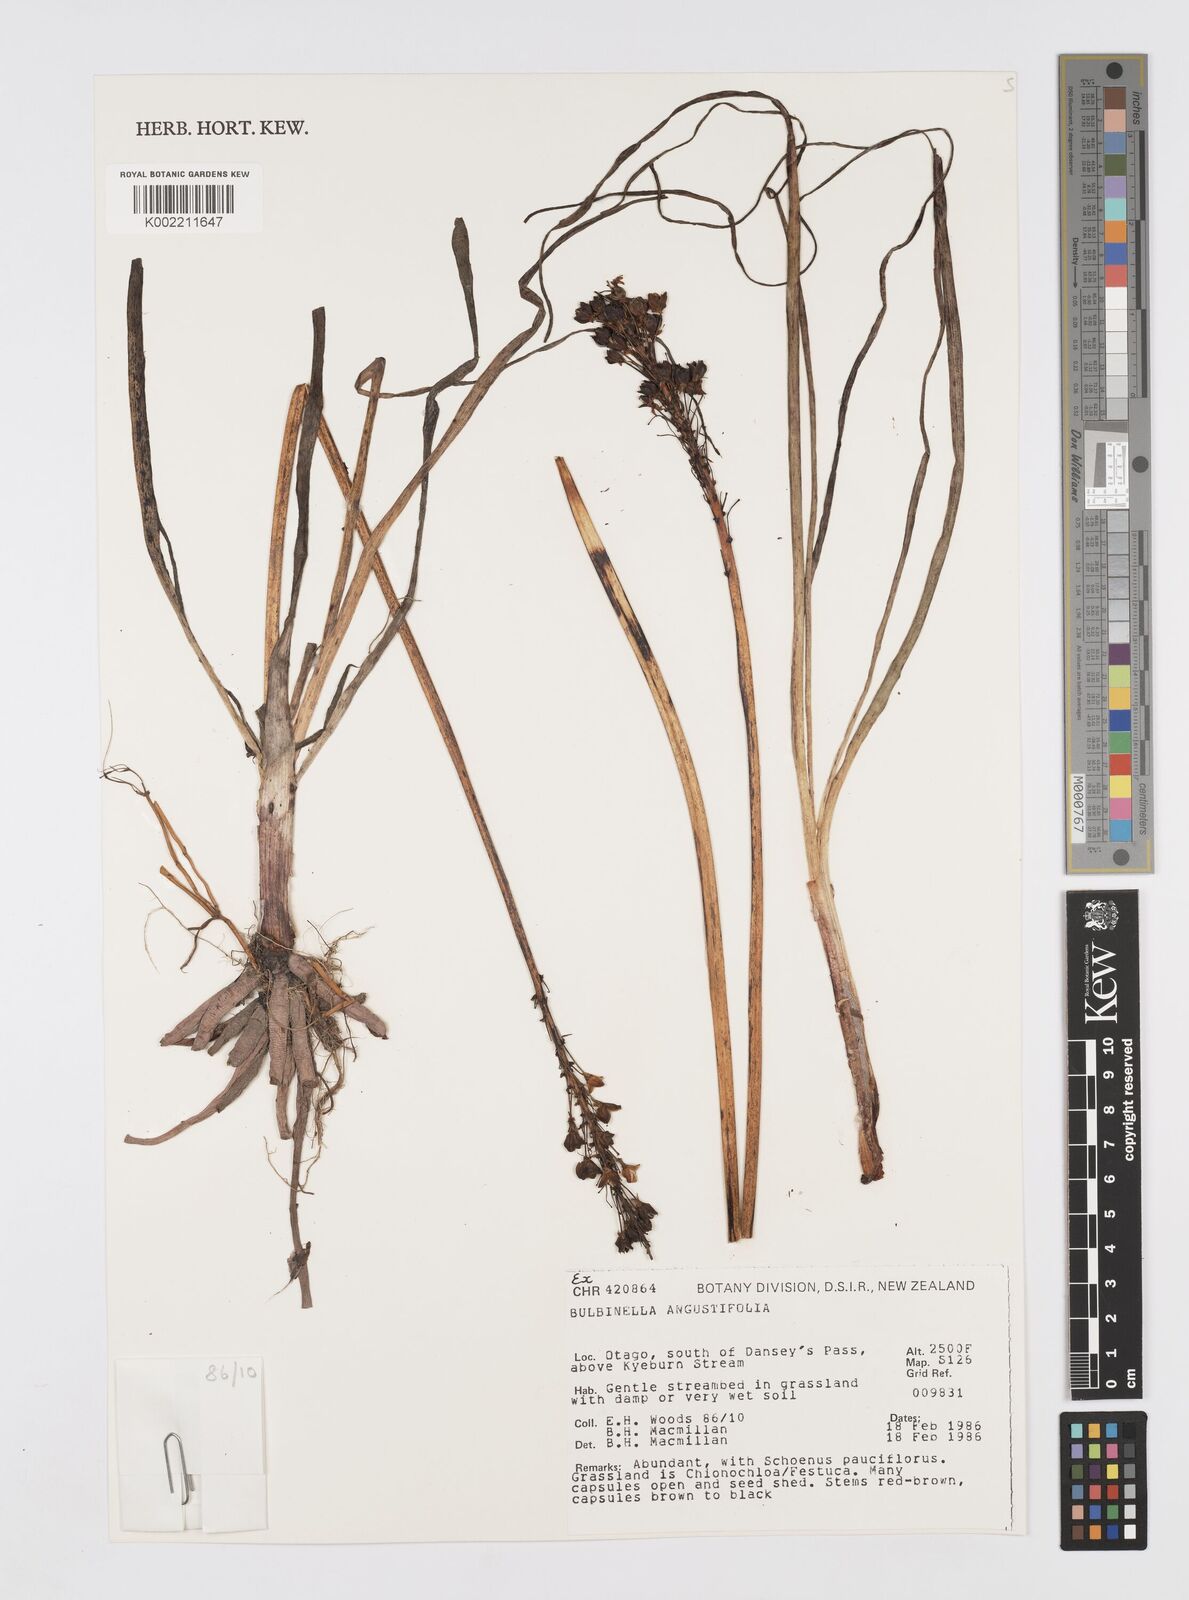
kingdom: Plantae
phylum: Tracheophyta
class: Liliopsida
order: Asparagales
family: Asphodelaceae
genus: Bulbinella
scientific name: Bulbinella angustifolia
